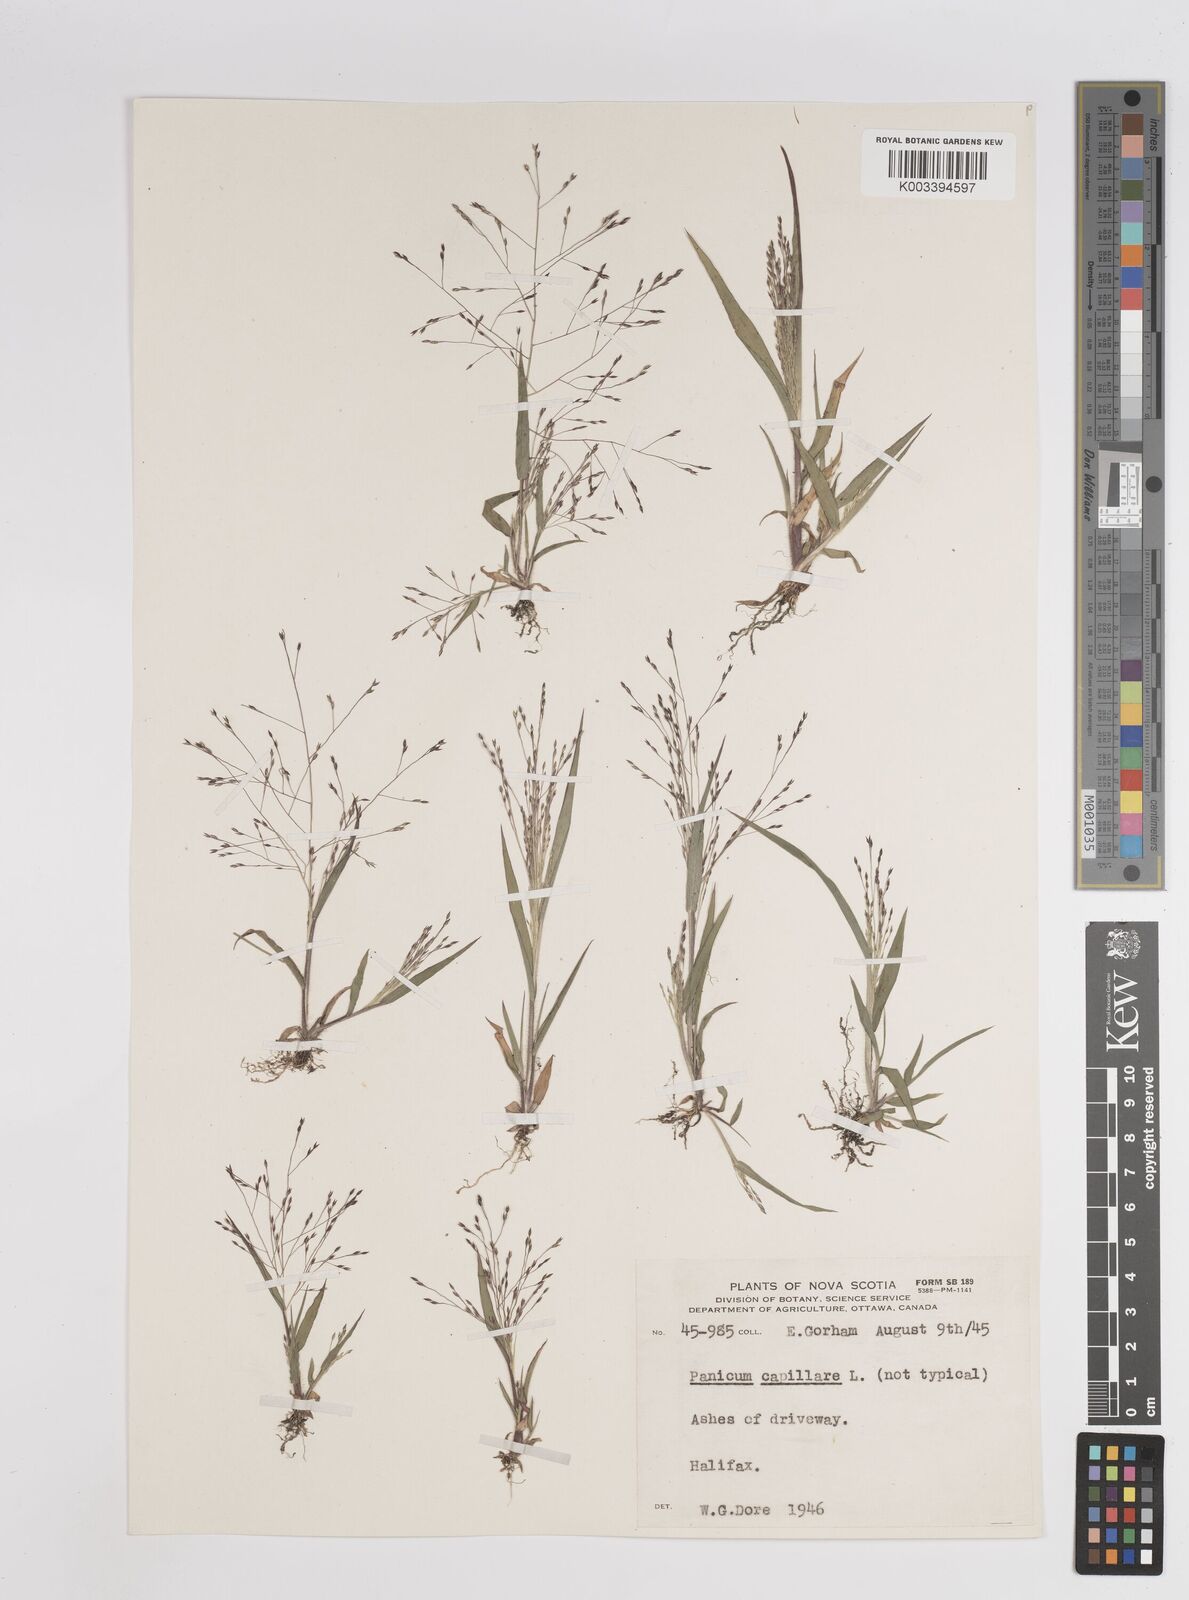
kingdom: Plantae
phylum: Tracheophyta
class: Liliopsida
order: Poales
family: Poaceae
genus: Panicum
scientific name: Panicum capillare
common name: Witch-grass
